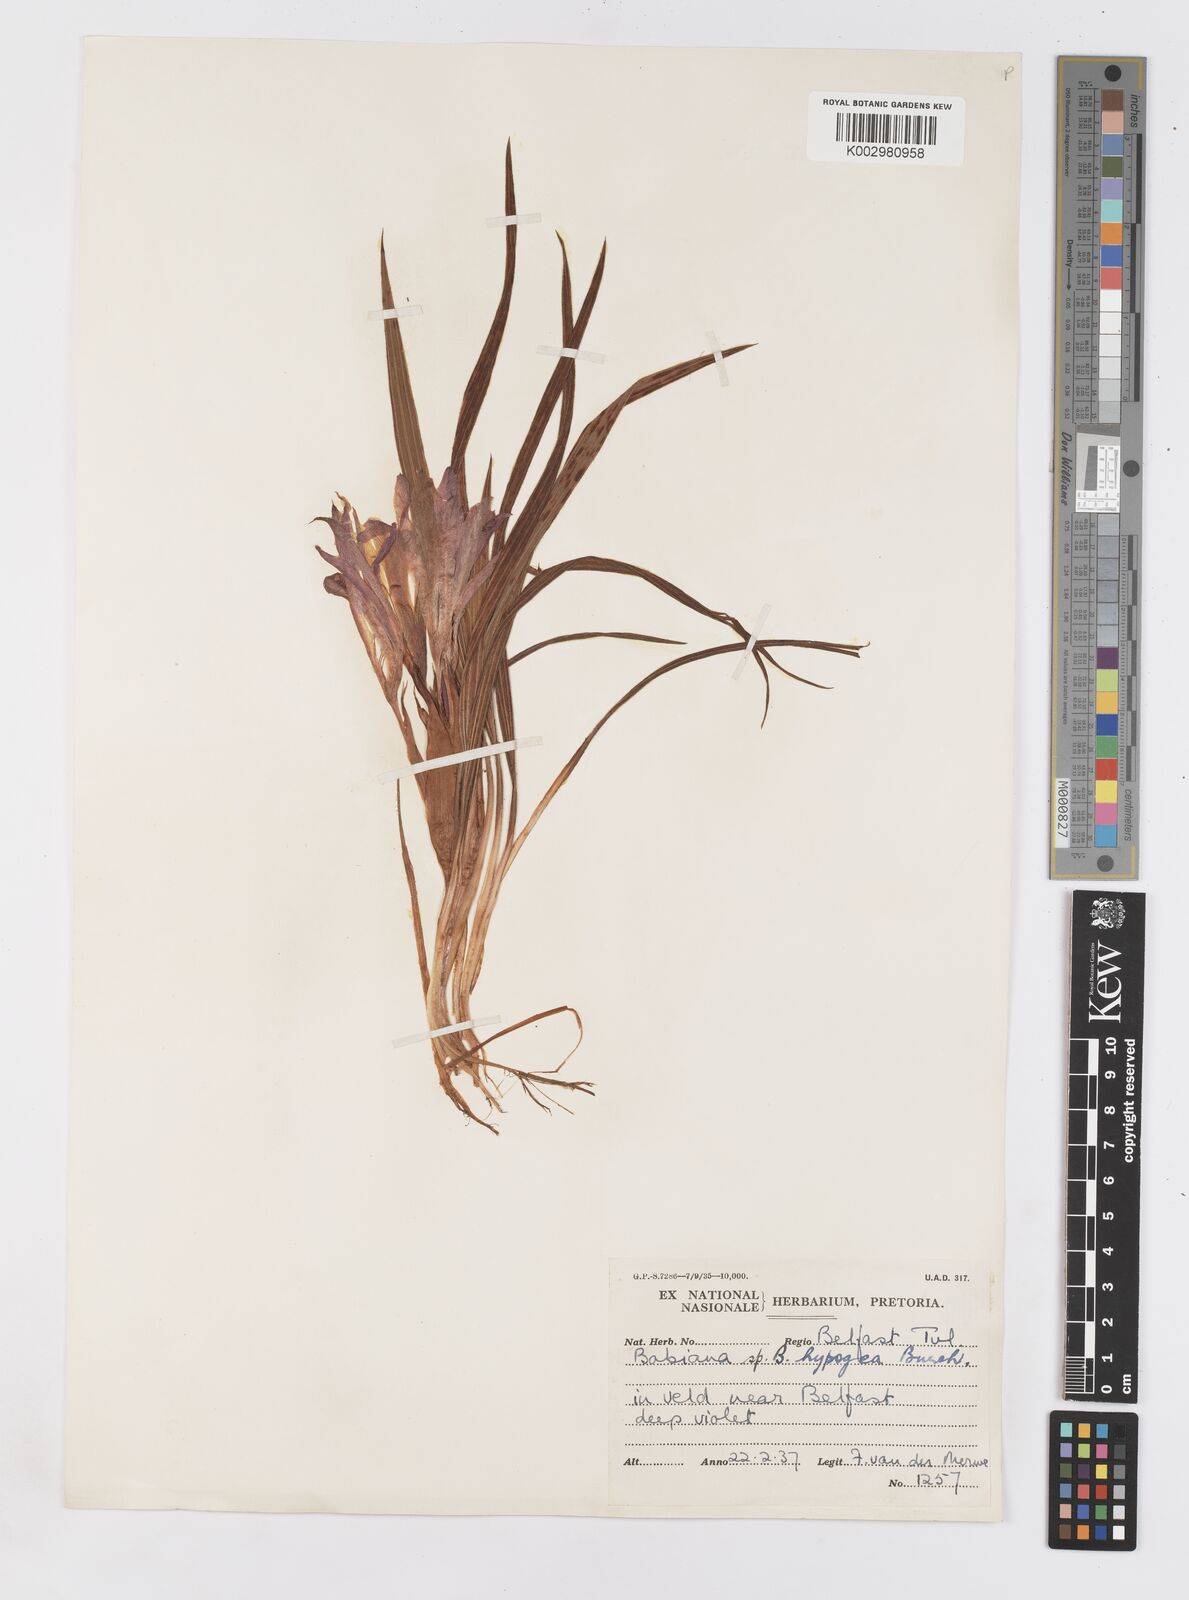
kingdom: Plantae
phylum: Tracheophyta
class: Liliopsida
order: Asparagales
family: Iridaceae
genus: Babiana
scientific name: Babiana bainesii
